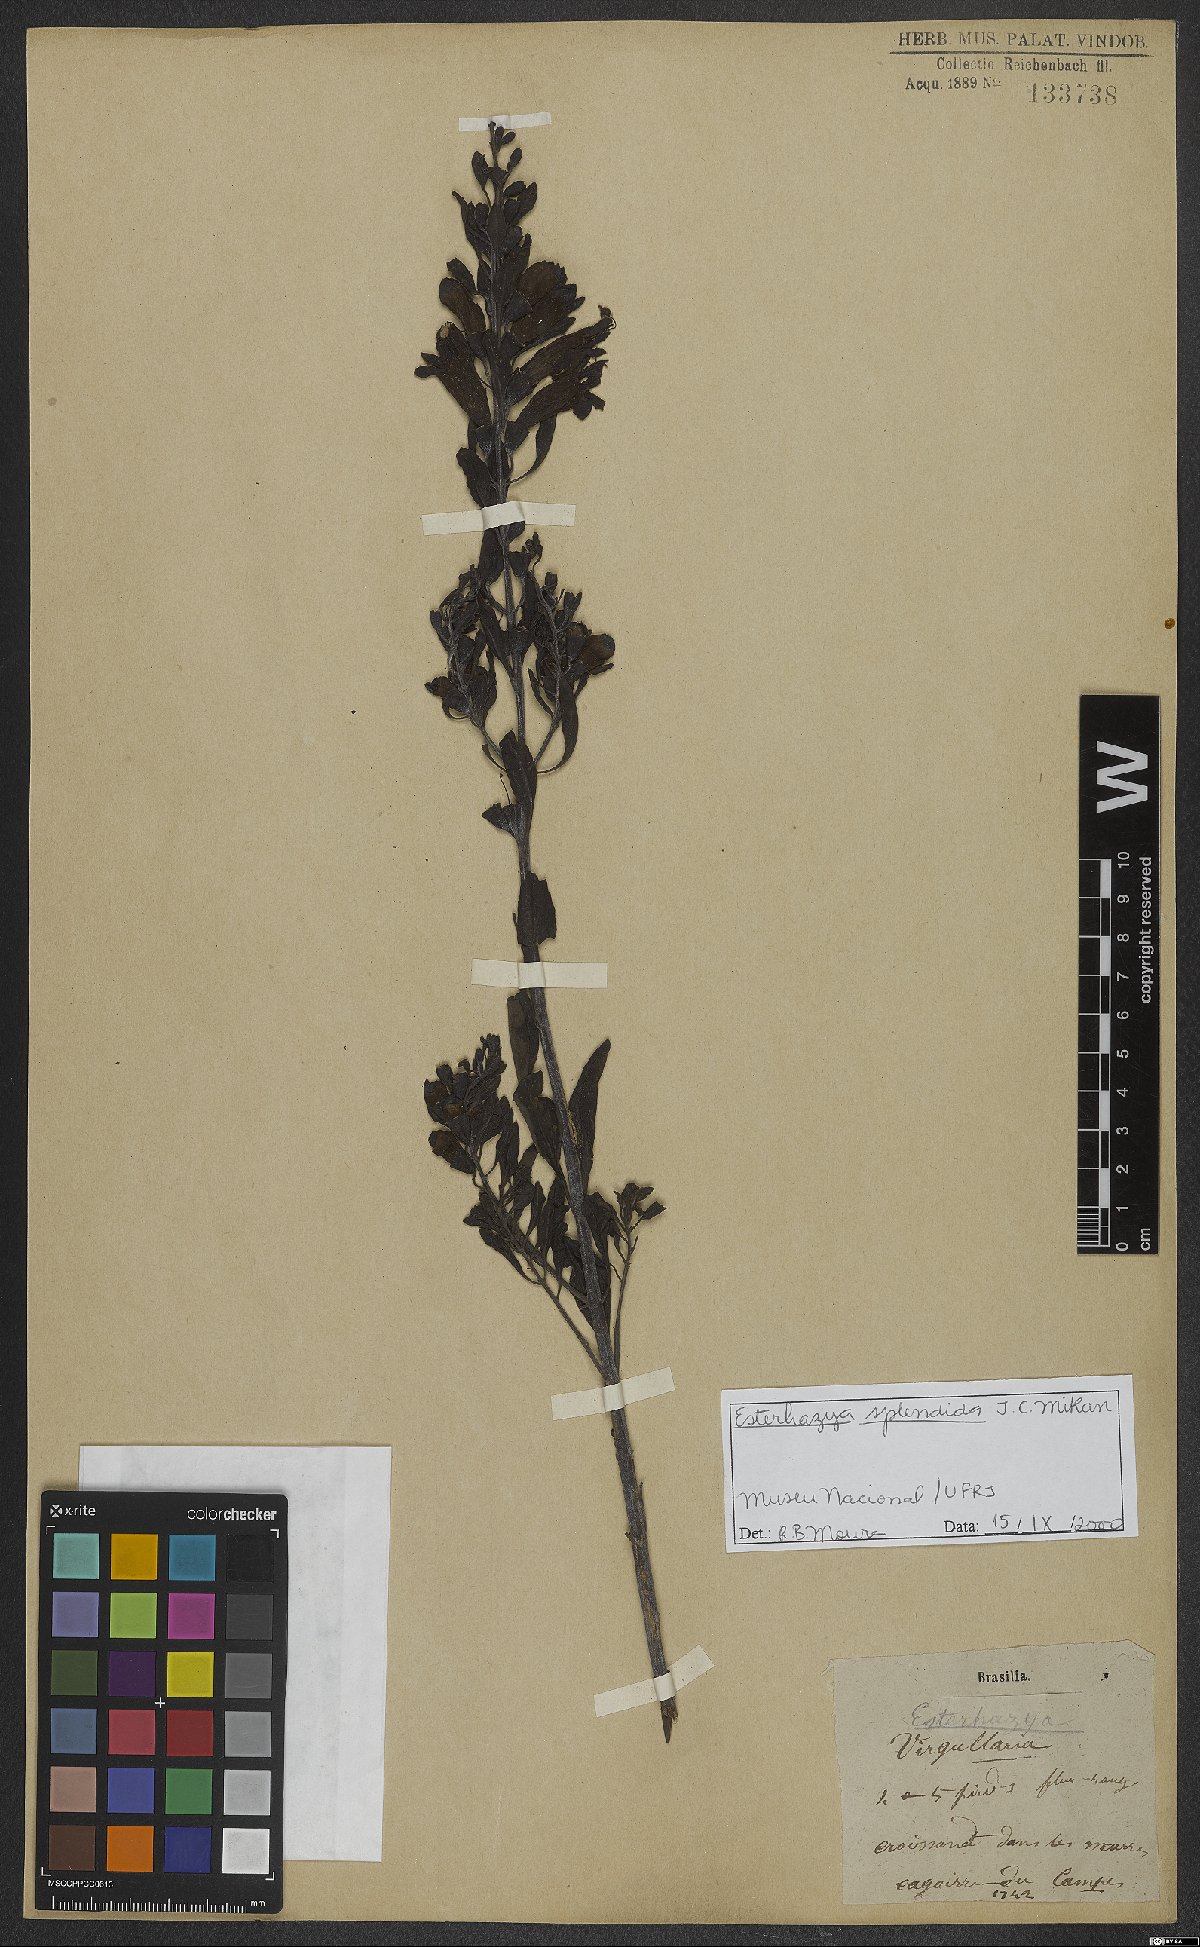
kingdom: Plantae
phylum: Tracheophyta
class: Magnoliopsida
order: Lamiales
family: Orobanchaceae
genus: Esterhazya
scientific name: Esterhazya splendida
